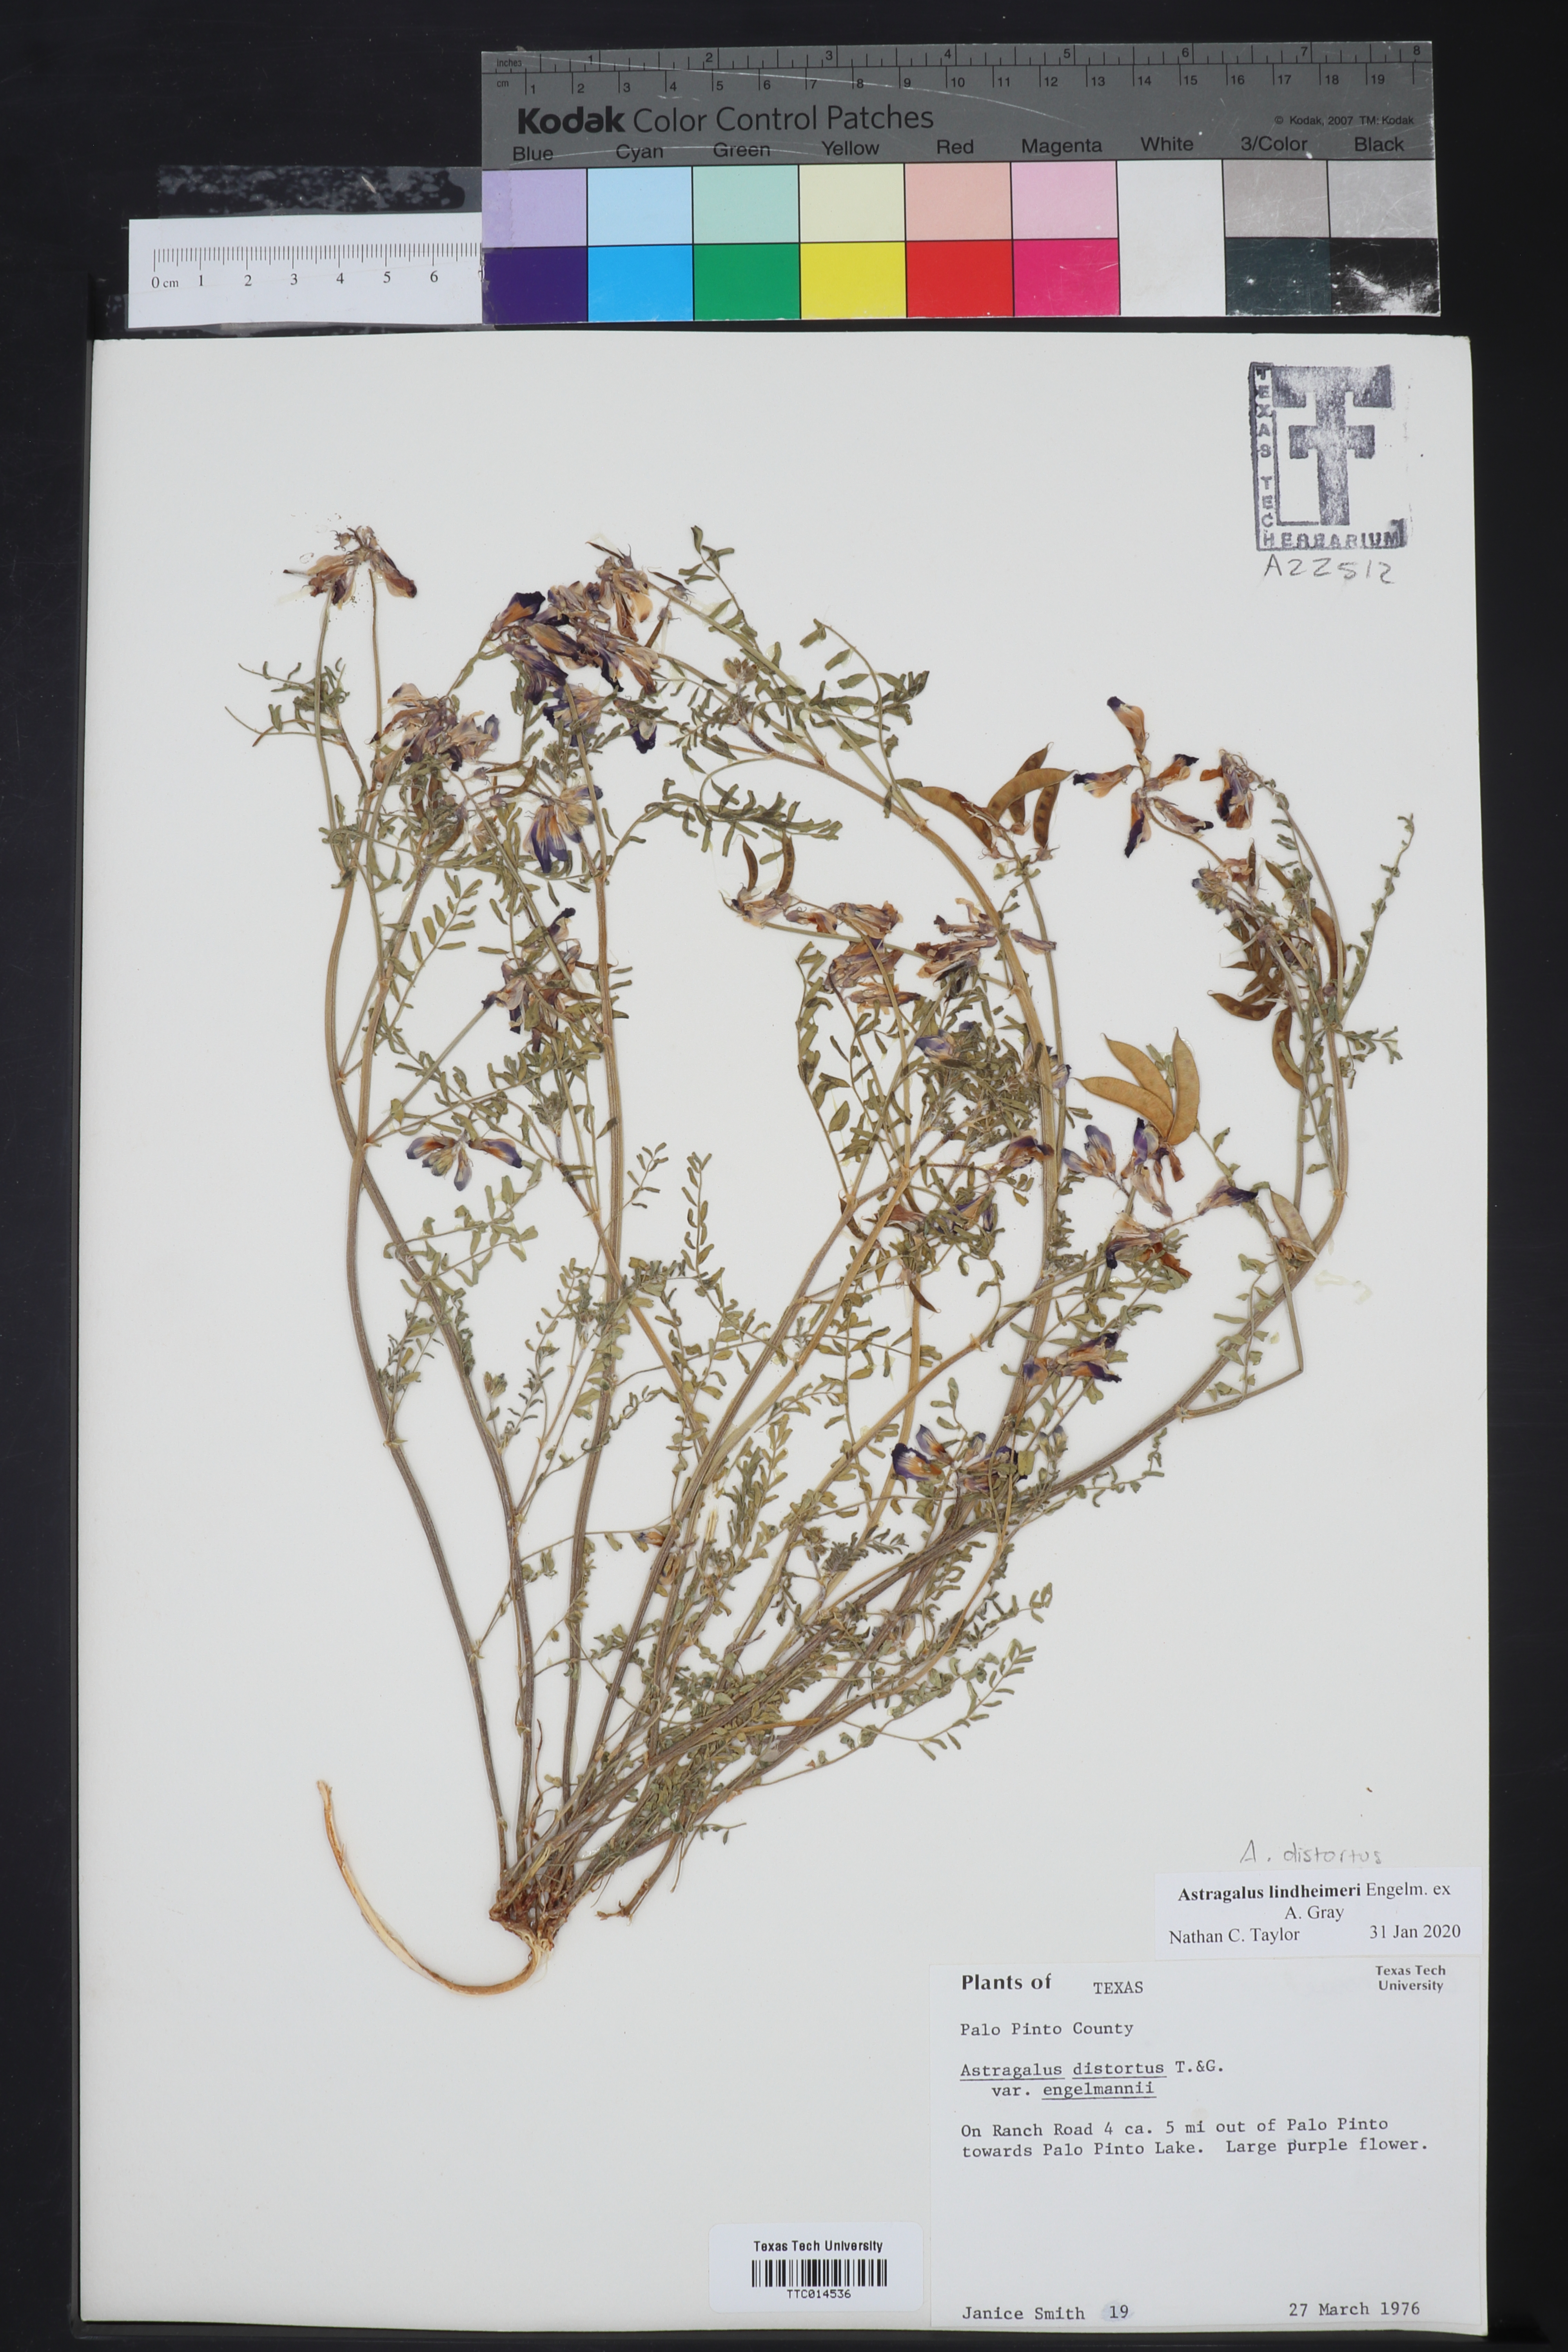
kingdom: Plantae
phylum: Tracheophyta
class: Magnoliopsida
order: Fabales
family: Fabaceae
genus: Astragalus
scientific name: Astragalus lindheimeri
